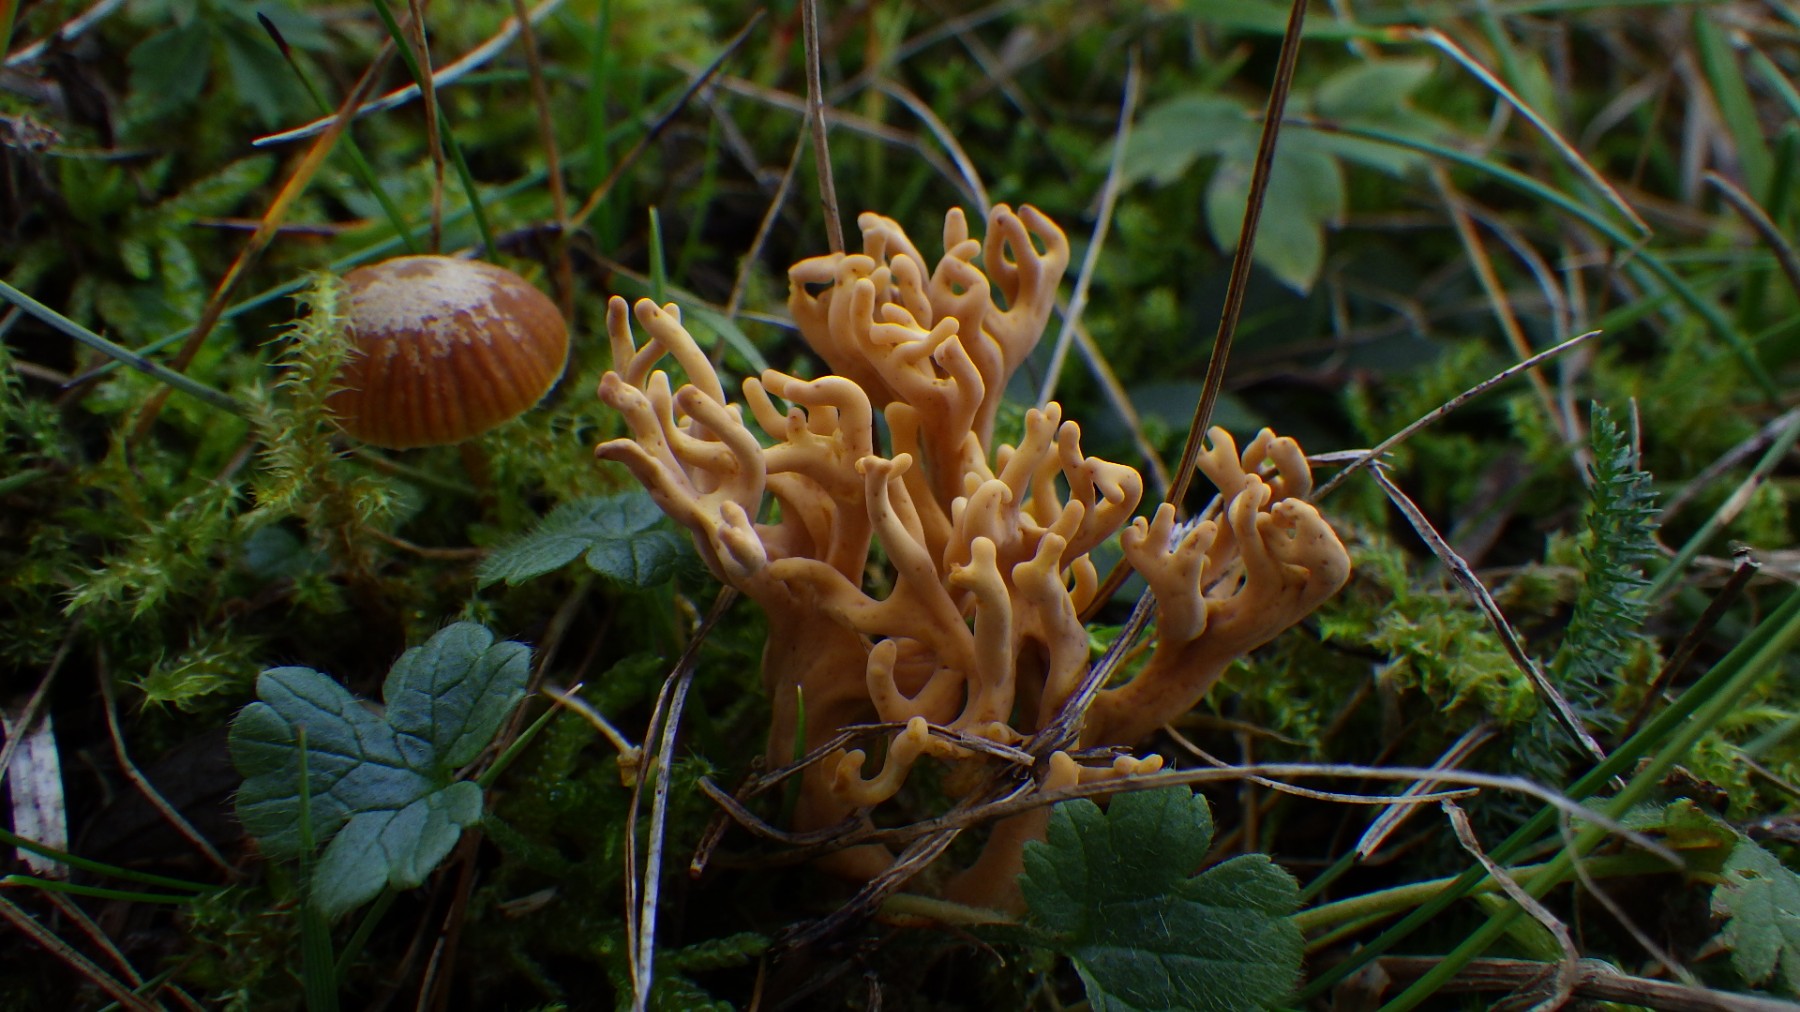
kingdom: Fungi
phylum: Basidiomycota
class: Agaricomycetes
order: Agaricales
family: Clavariaceae
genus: Clavulinopsis
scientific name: Clavulinopsis corniculata
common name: eng-køllesvamp
